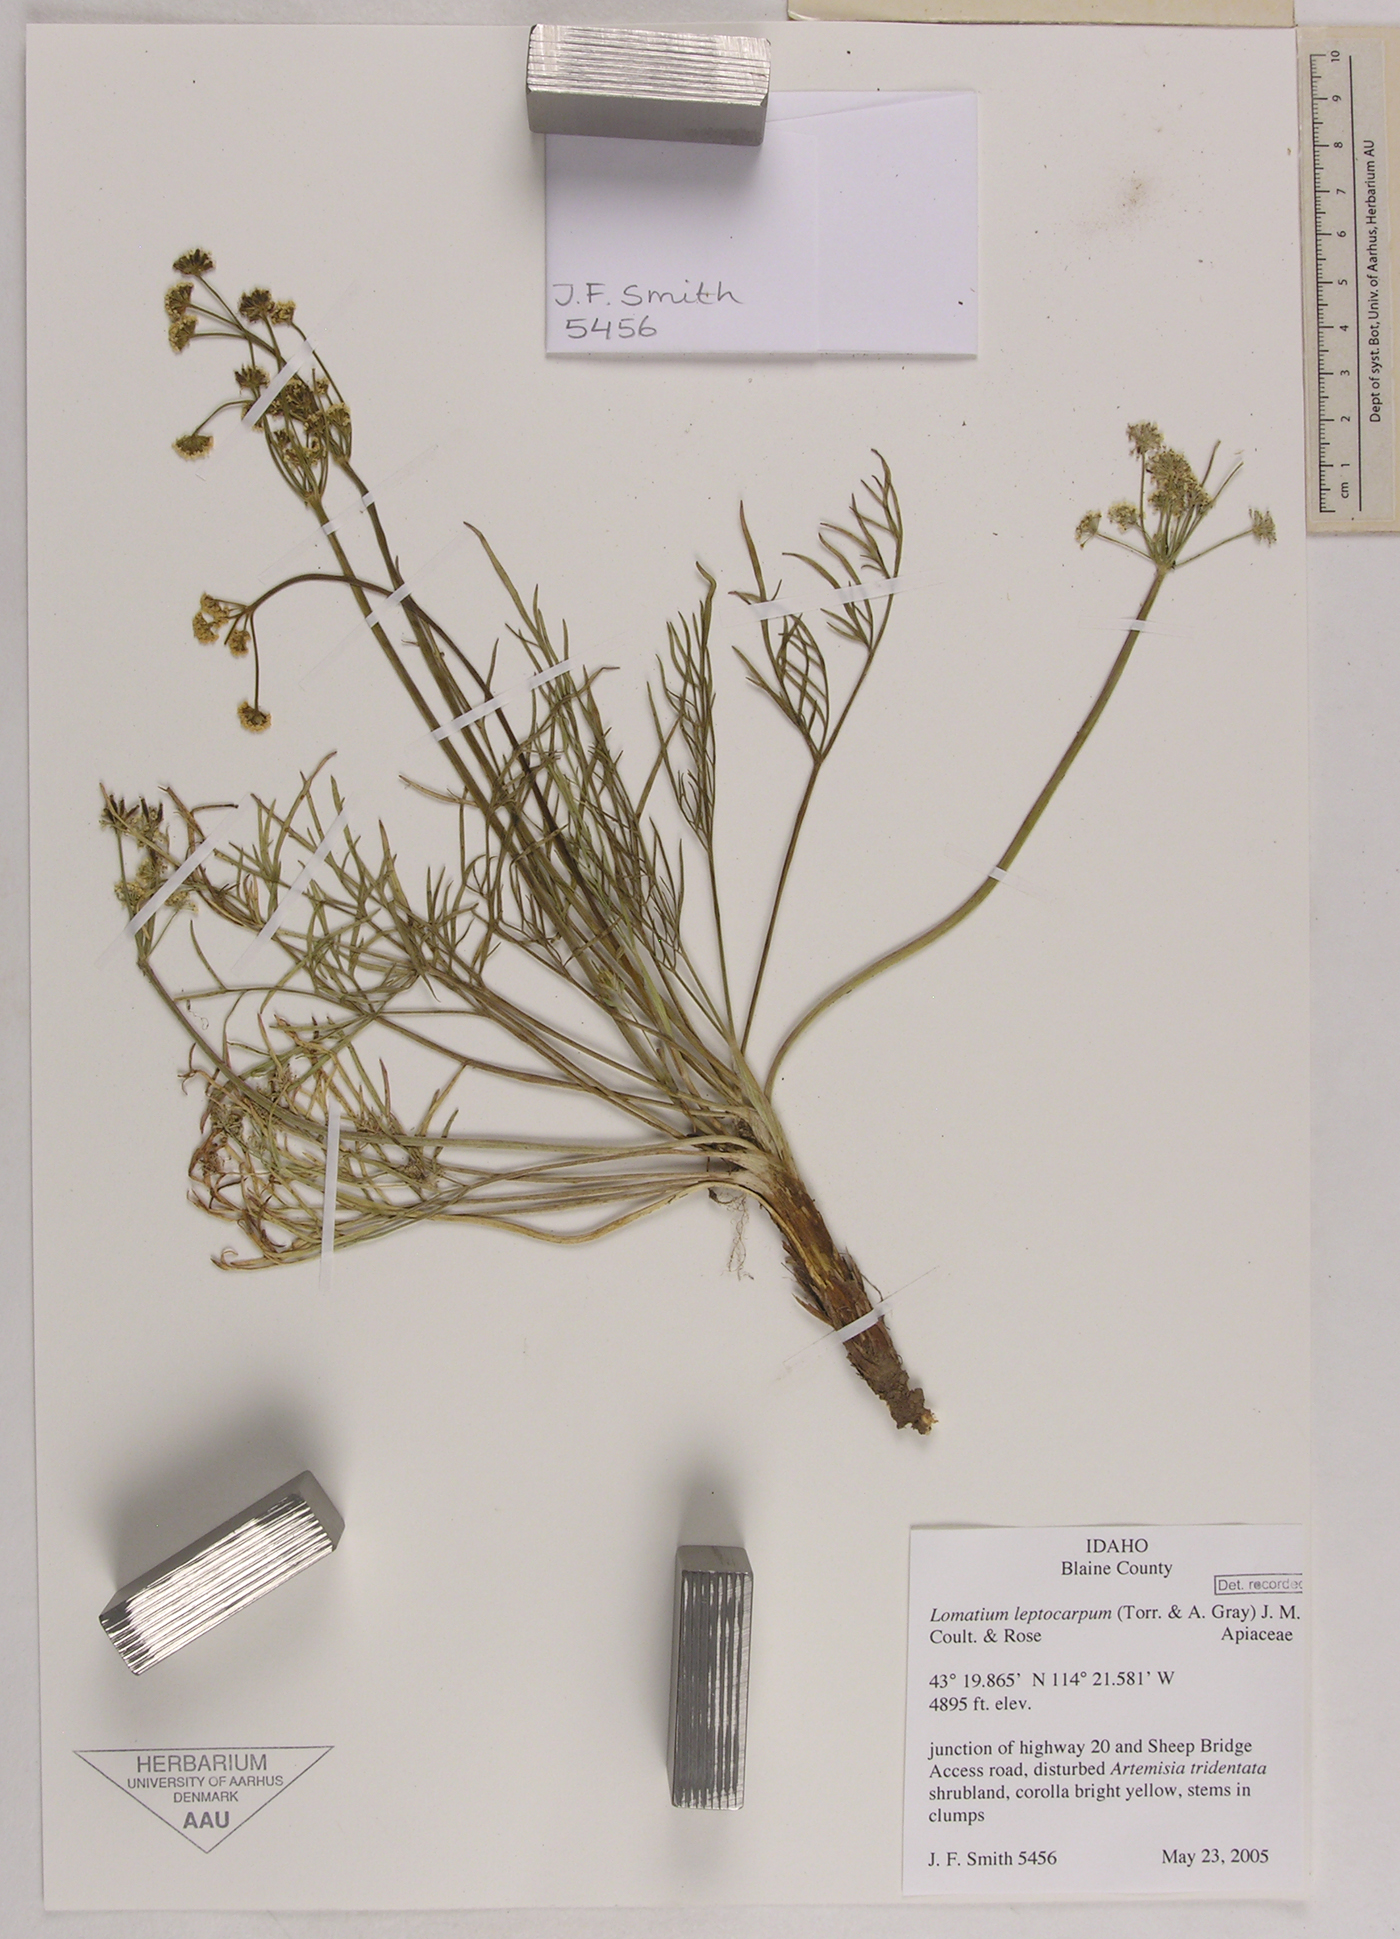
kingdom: Plantae
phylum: Tracheophyta
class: Magnoliopsida
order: Apiales
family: Apiaceae
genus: Lomatium
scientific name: Lomatium bicolor
